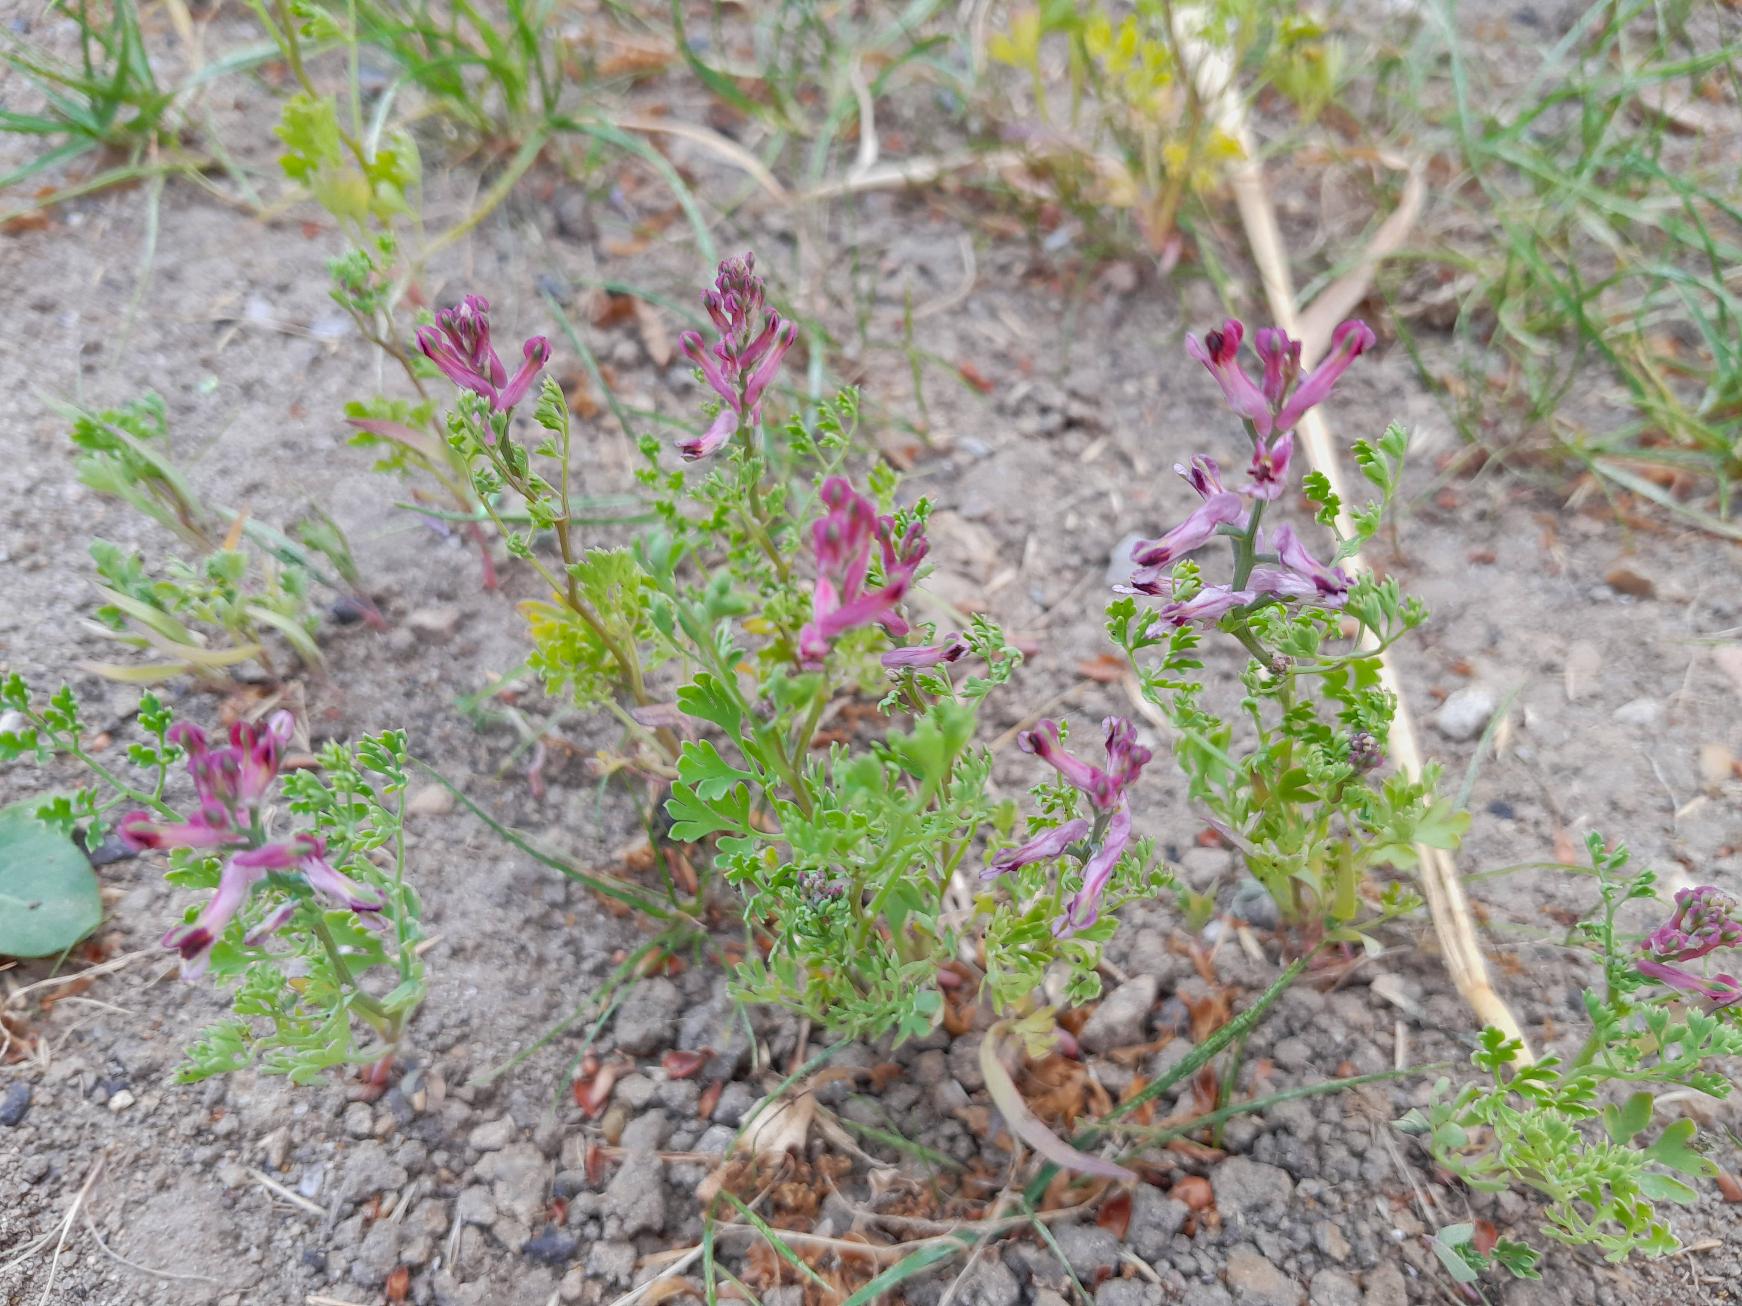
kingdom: Plantae
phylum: Tracheophyta
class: Magnoliopsida
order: Ranunculales
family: Papaveraceae
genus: Fumaria
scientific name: Fumaria officinalis
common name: Læge-jordrøg
